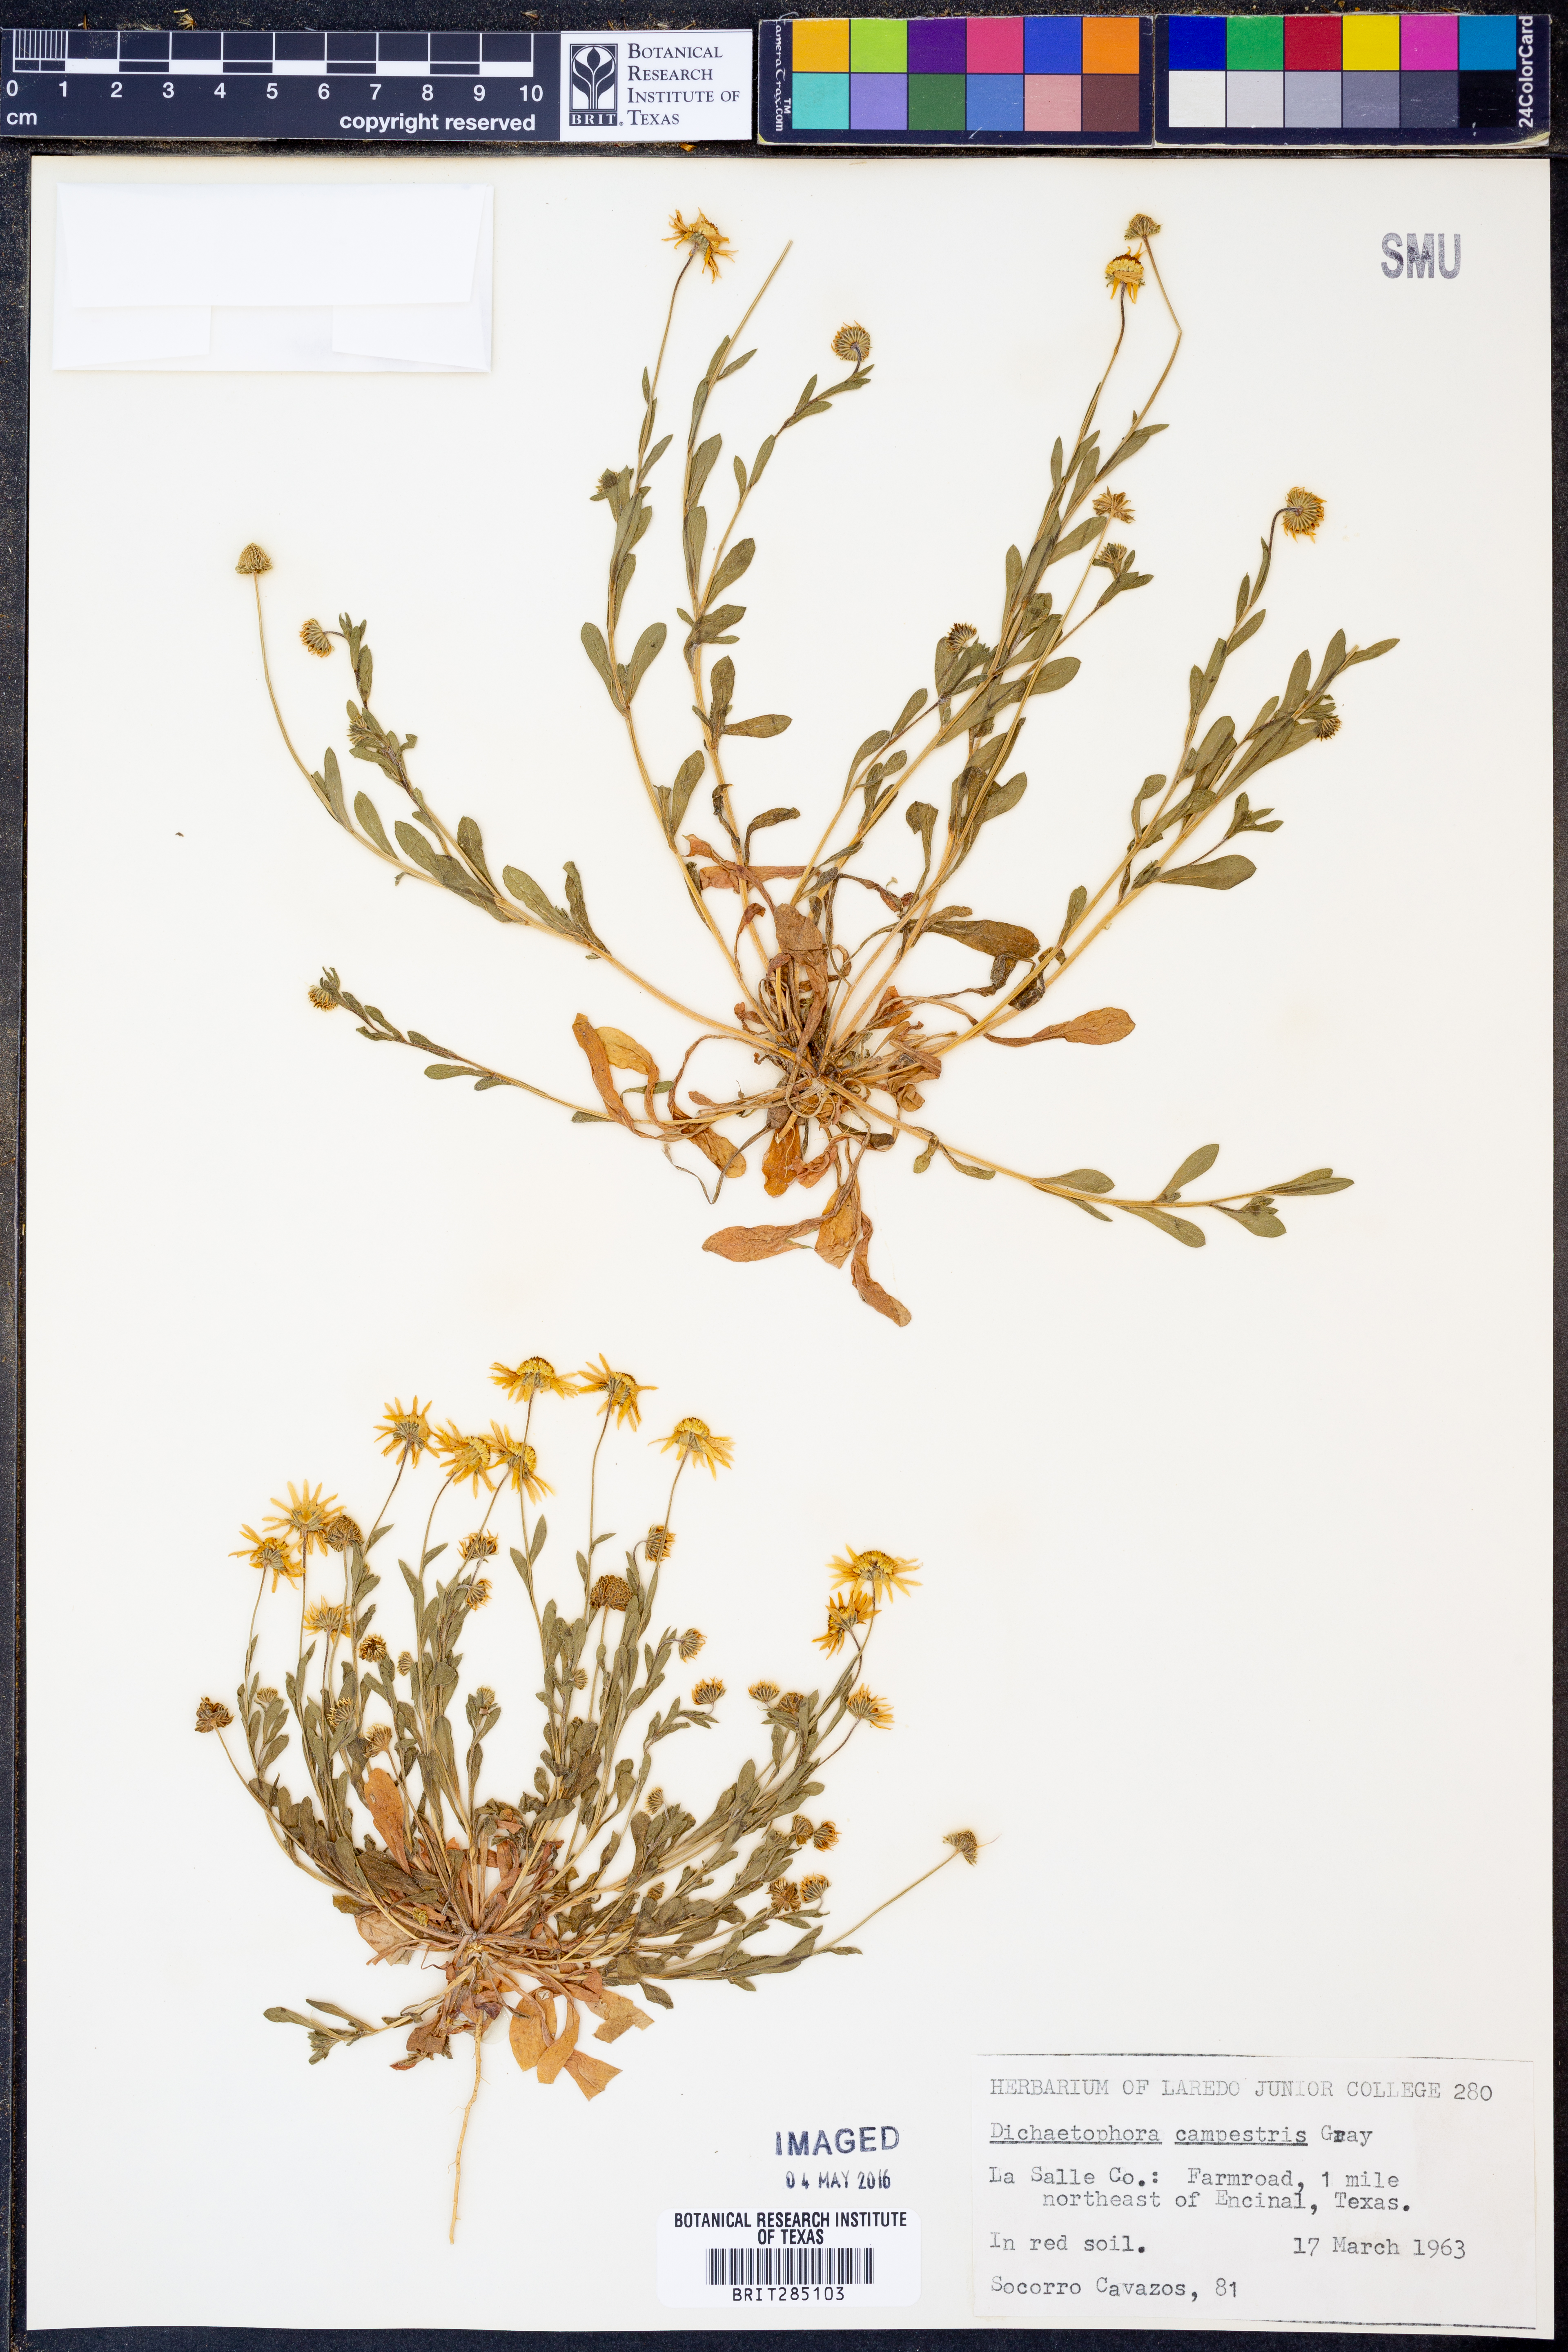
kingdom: Plantae
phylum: Tracheophyta
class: Magnoliopsida
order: Asterales
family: Asteraceae
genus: Dichaetophora
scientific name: Dichaetophora campestris
